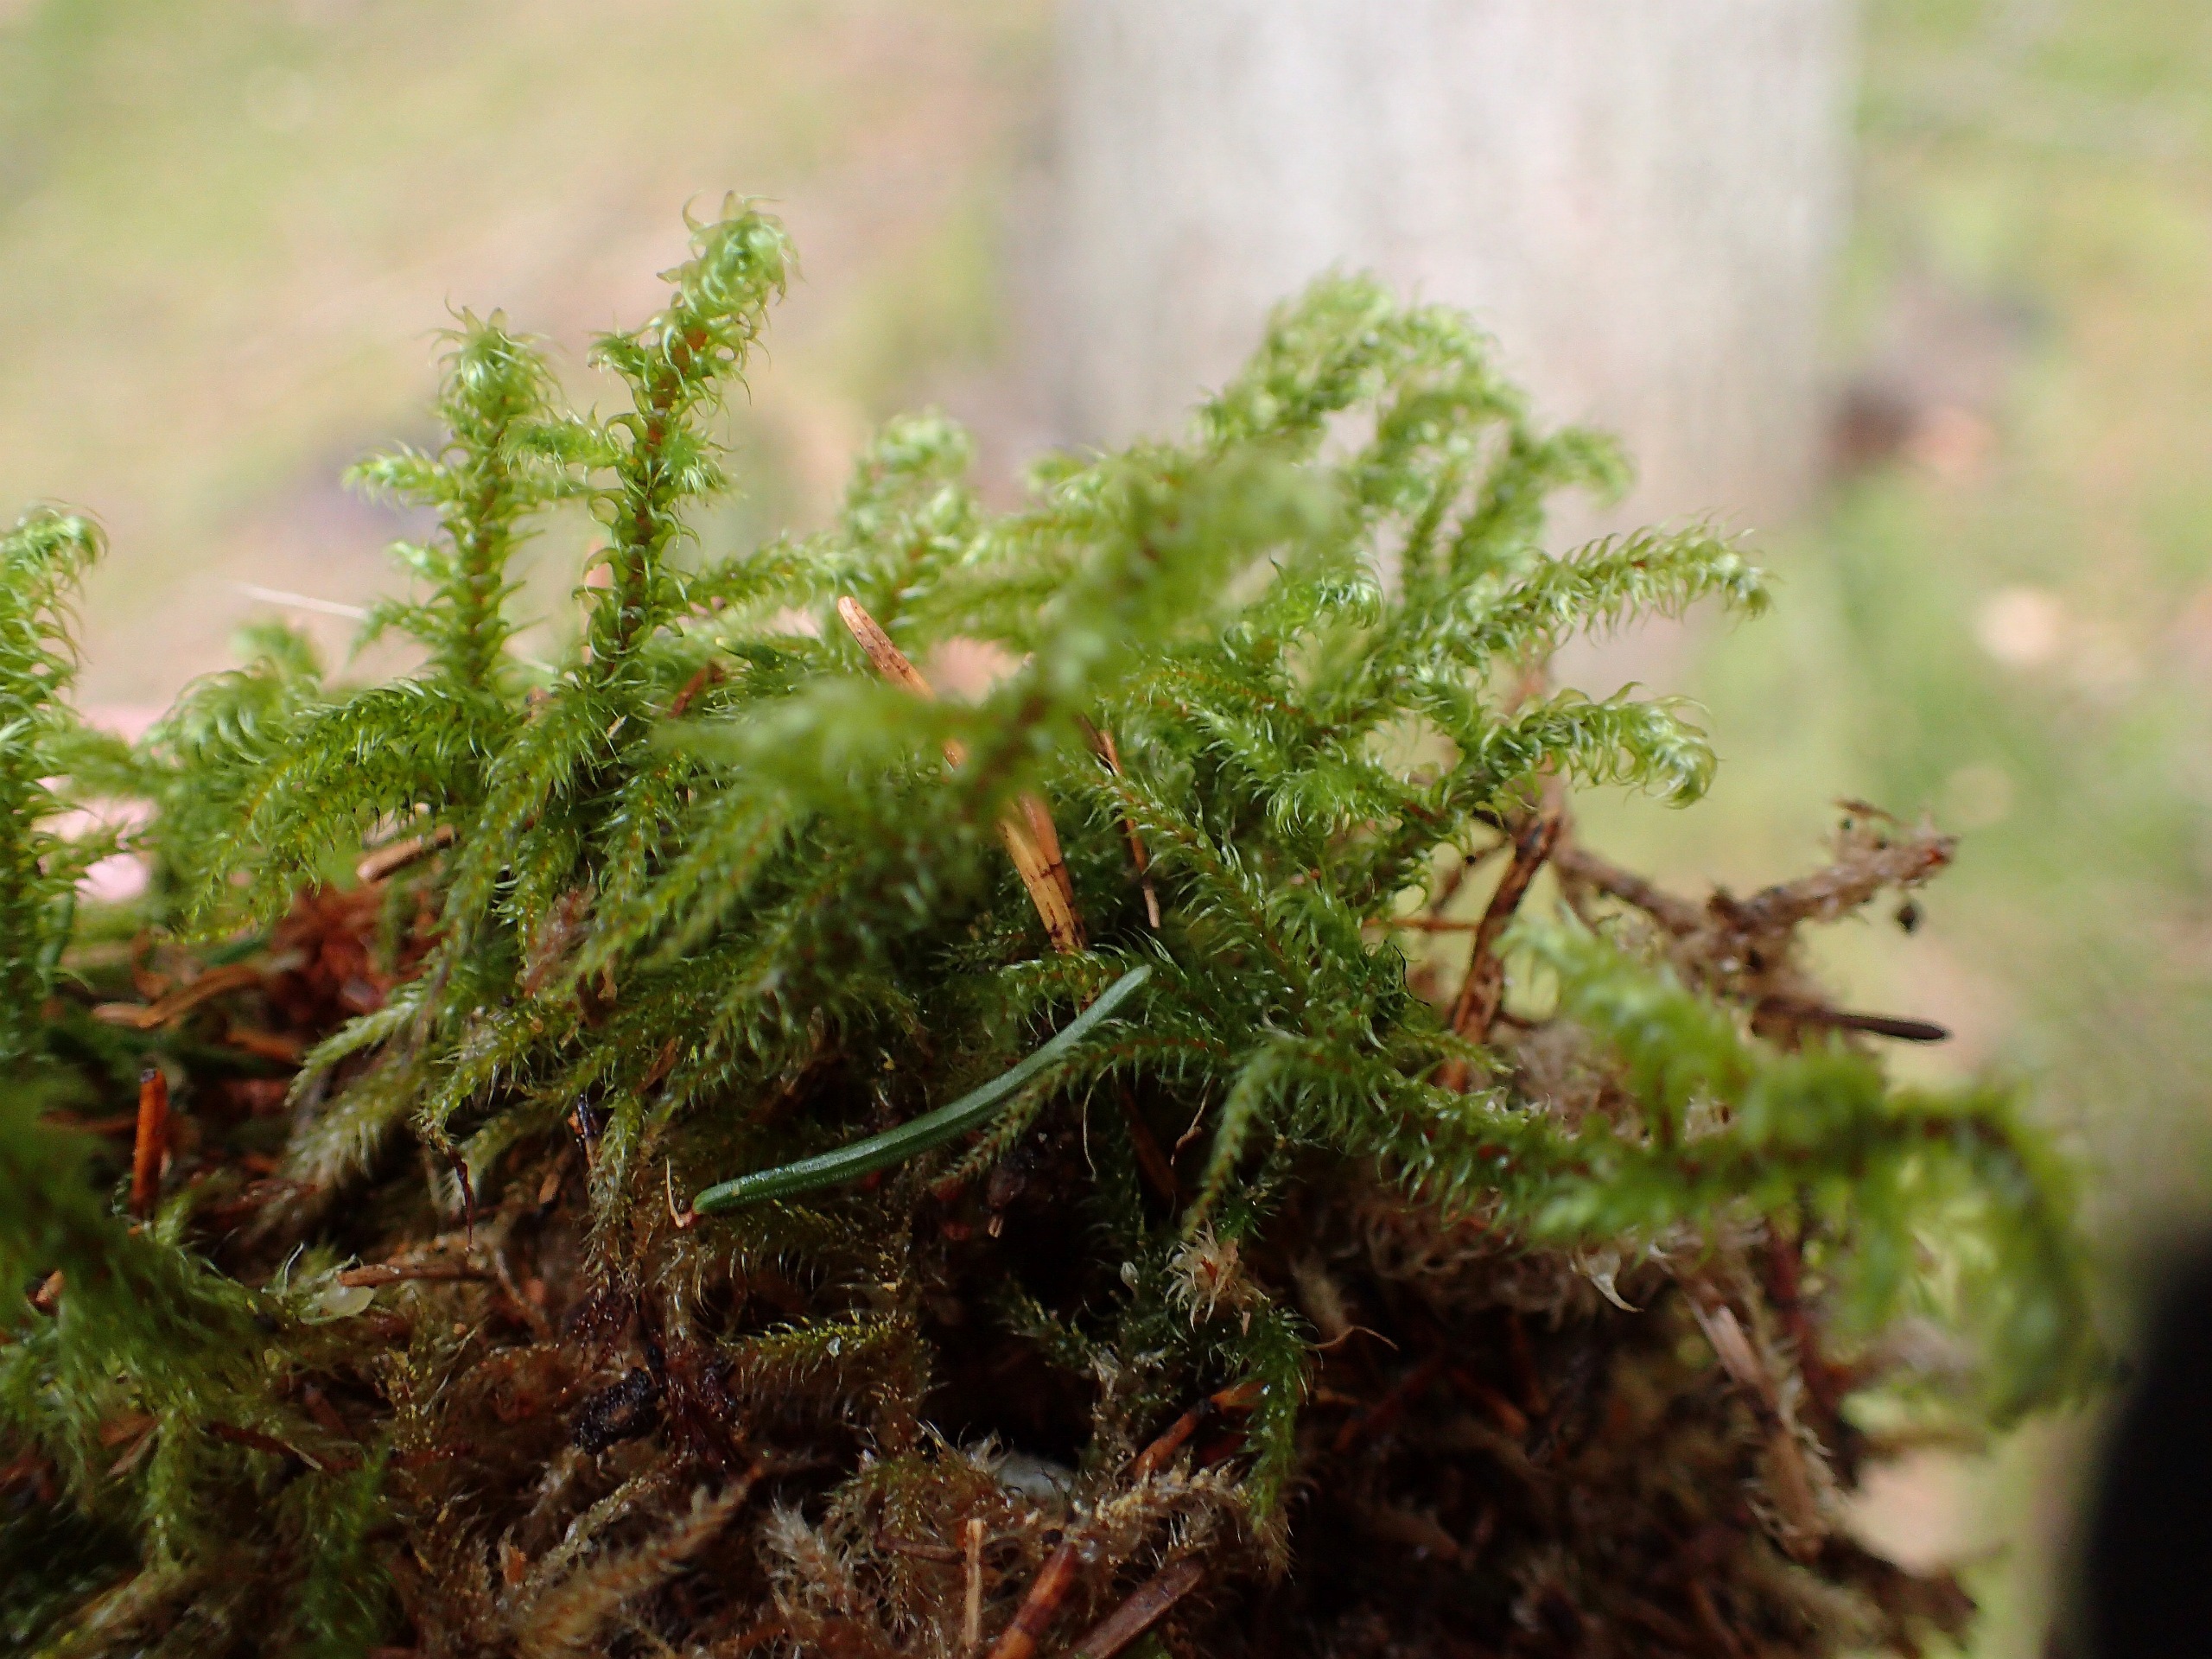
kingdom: Plantae
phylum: Bryophyta
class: Bryopsida
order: Hypnales
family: Hylocomiaceae
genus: Rhytidiadelphus
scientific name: Rhytidiadelphus loreus
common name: Ulvefod-kransemos
